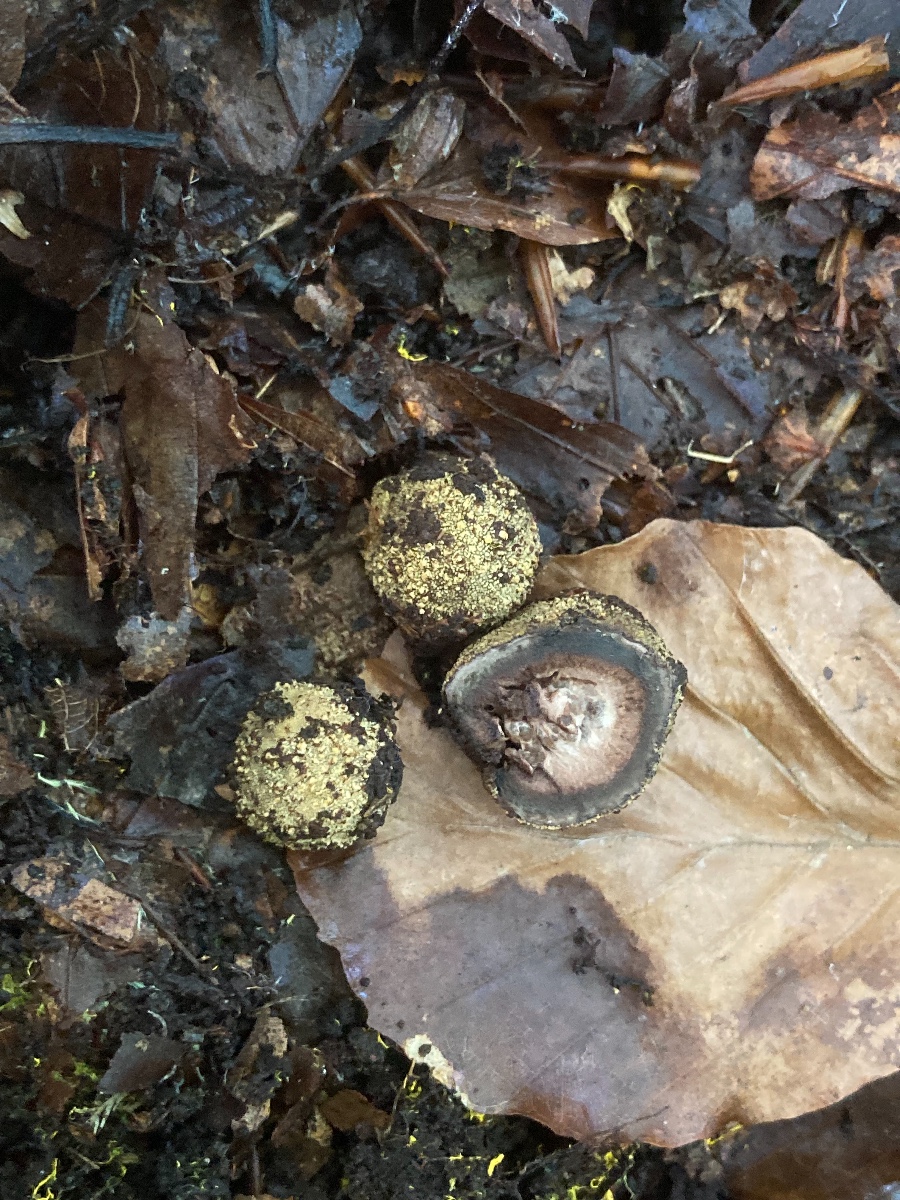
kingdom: Fungi
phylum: Ascomycota
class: Eurotiomycetes
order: Eurotiales
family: Elaphomycetaceae
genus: Elaphomyces
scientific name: Elaphomyces
